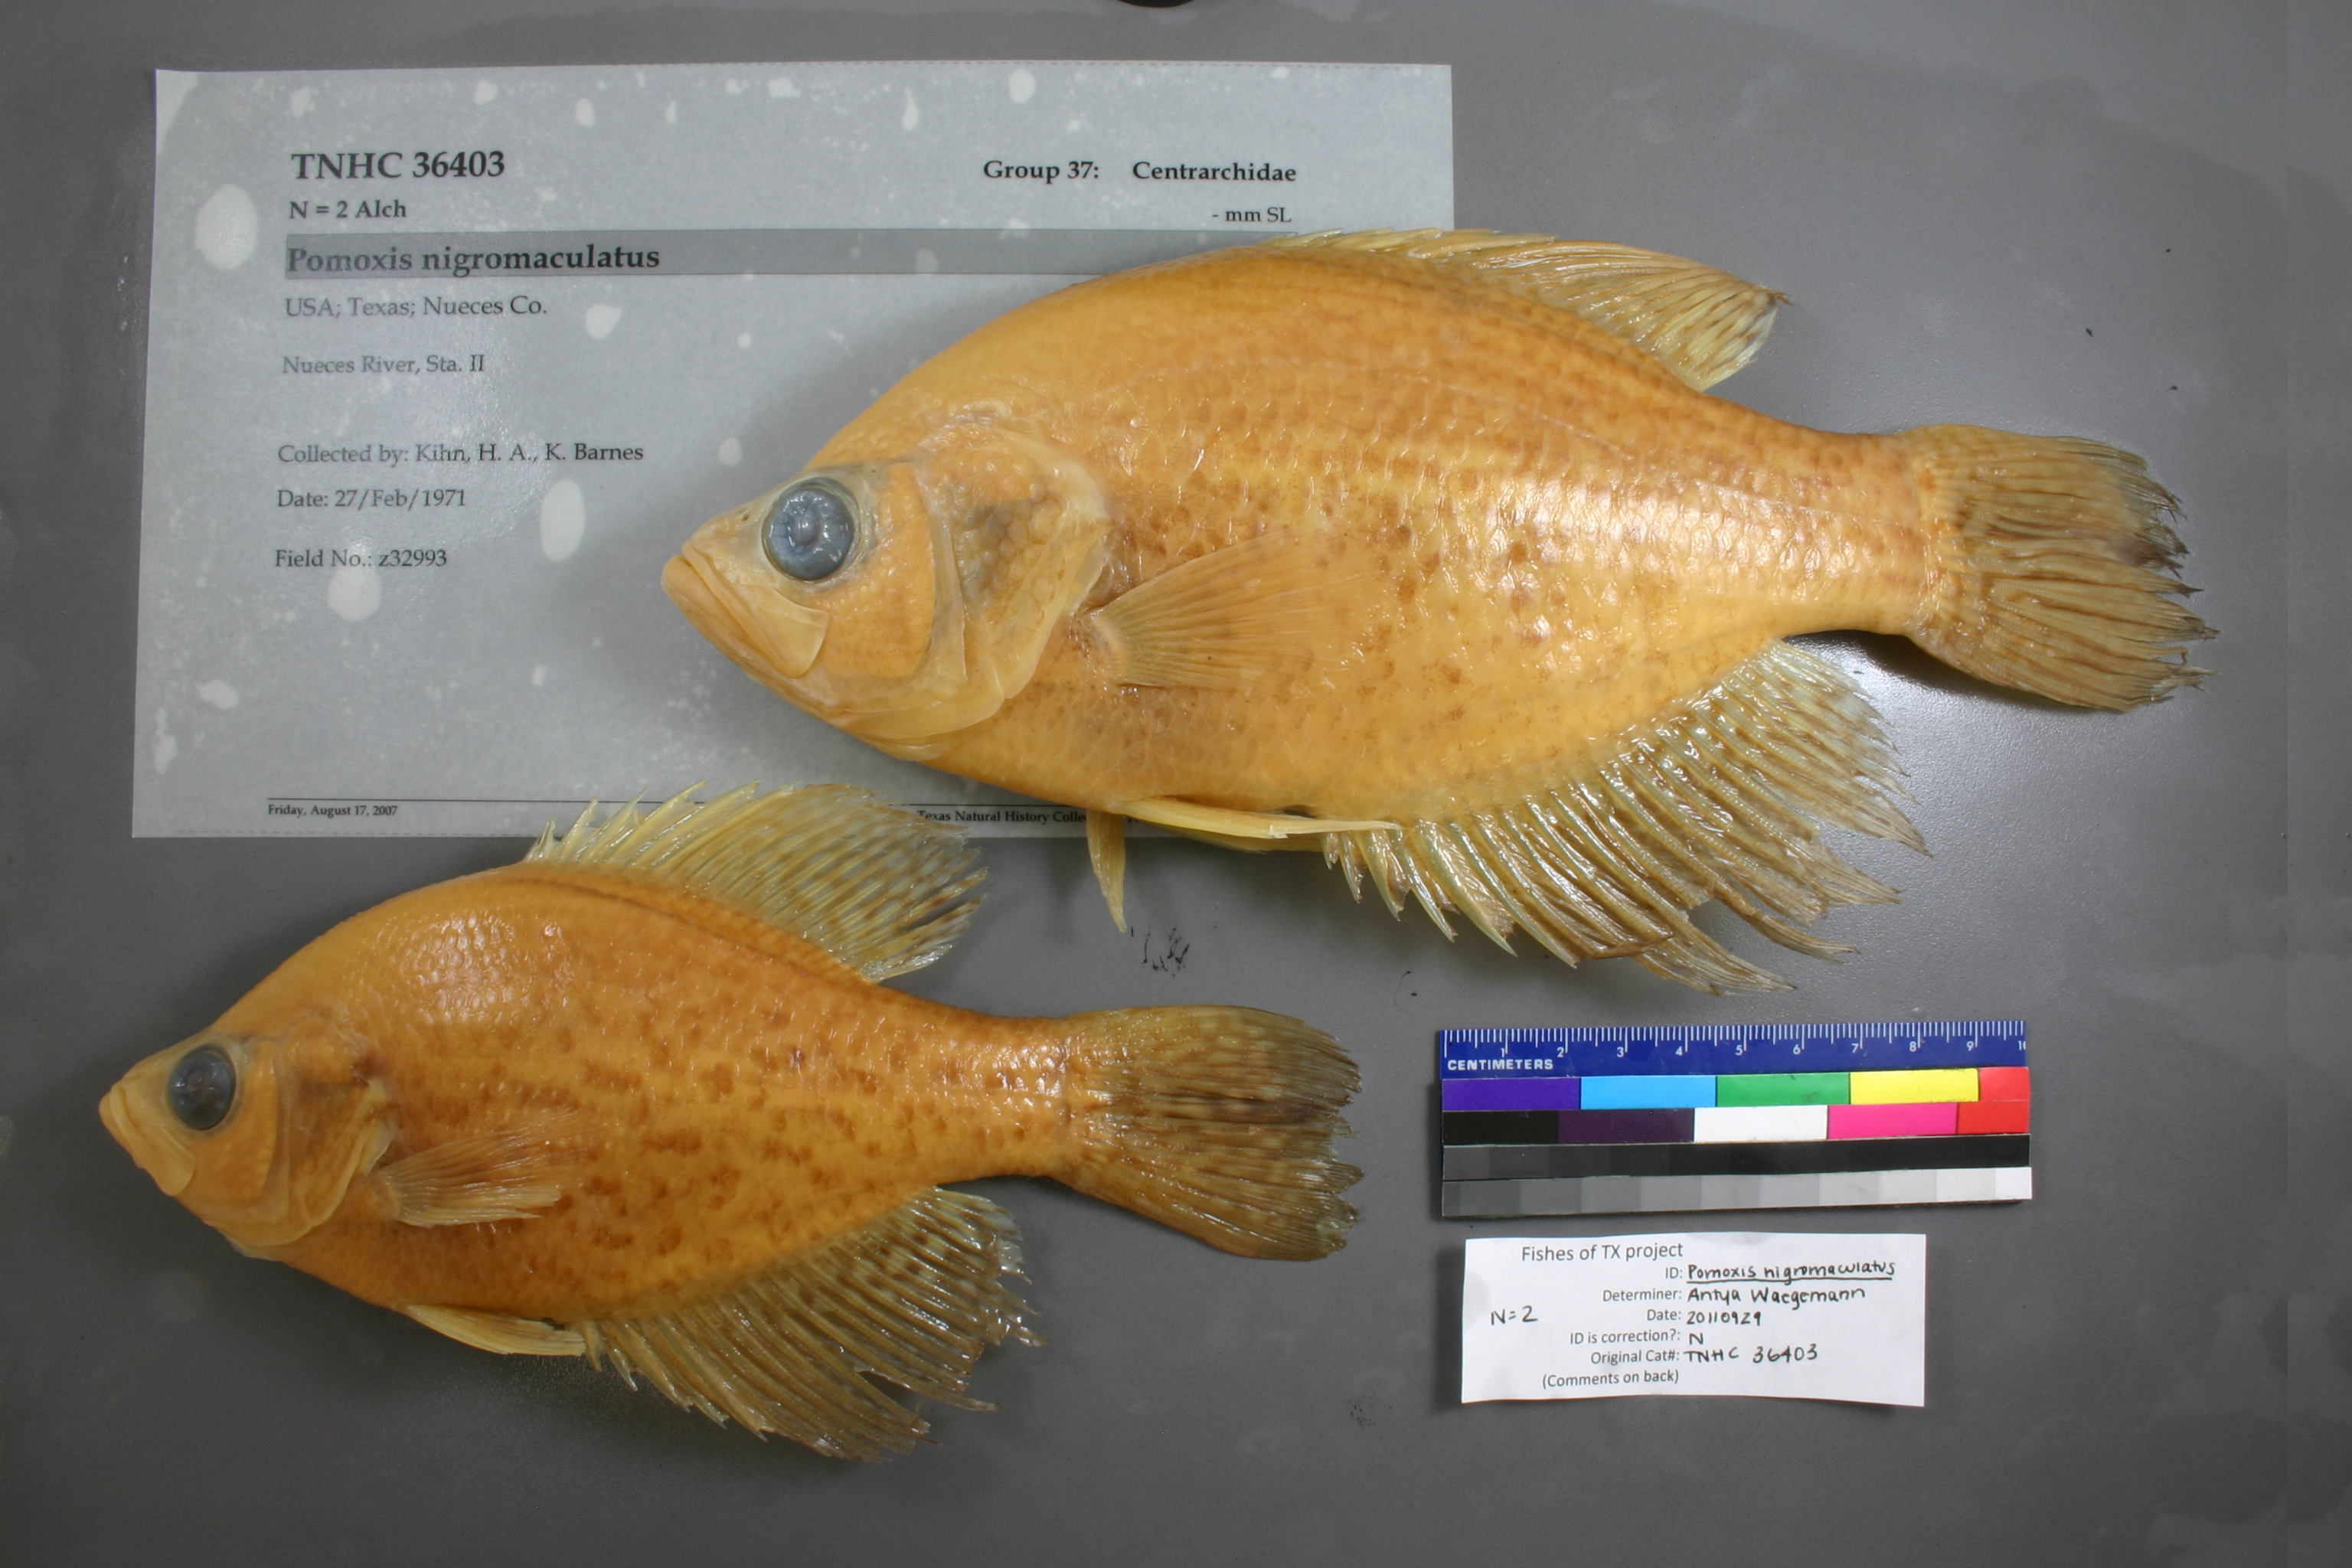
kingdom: Animalia
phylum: Chordata
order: Perciformes
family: Centrarchidae
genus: Pomoxis
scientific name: Pomoxis nigromaculatus
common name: Black crappie
